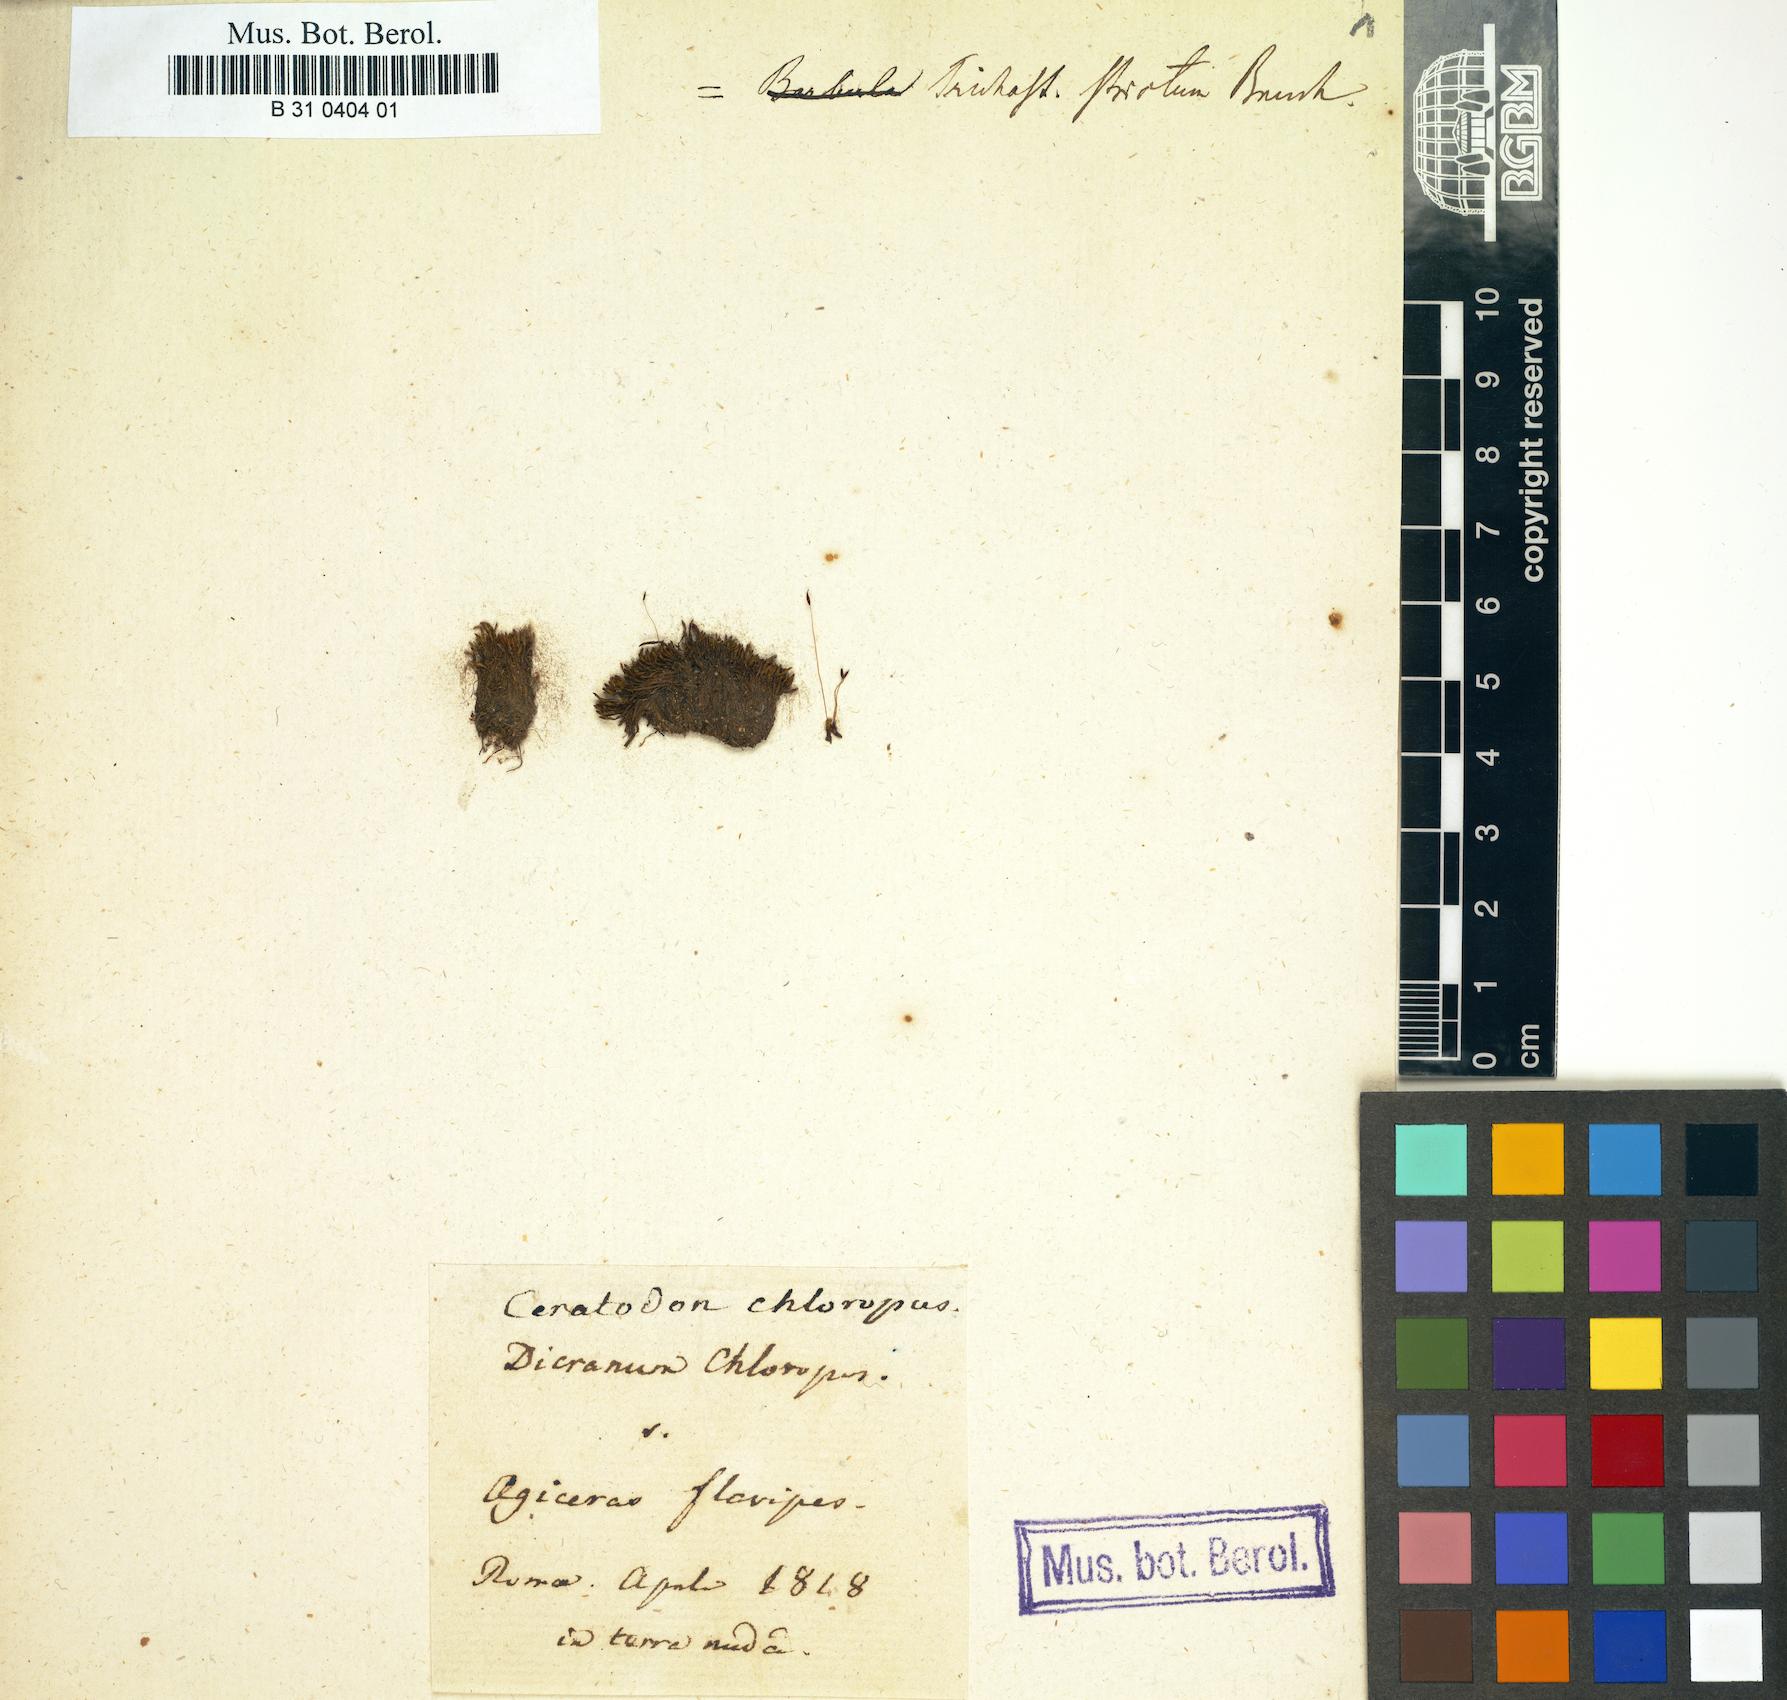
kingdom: Plantae
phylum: Bryophyta
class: Bryopsida
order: Dicranales
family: Ditrichaceae
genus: Cheilothela
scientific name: Cheilothela chloropus
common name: Rabbit moss
